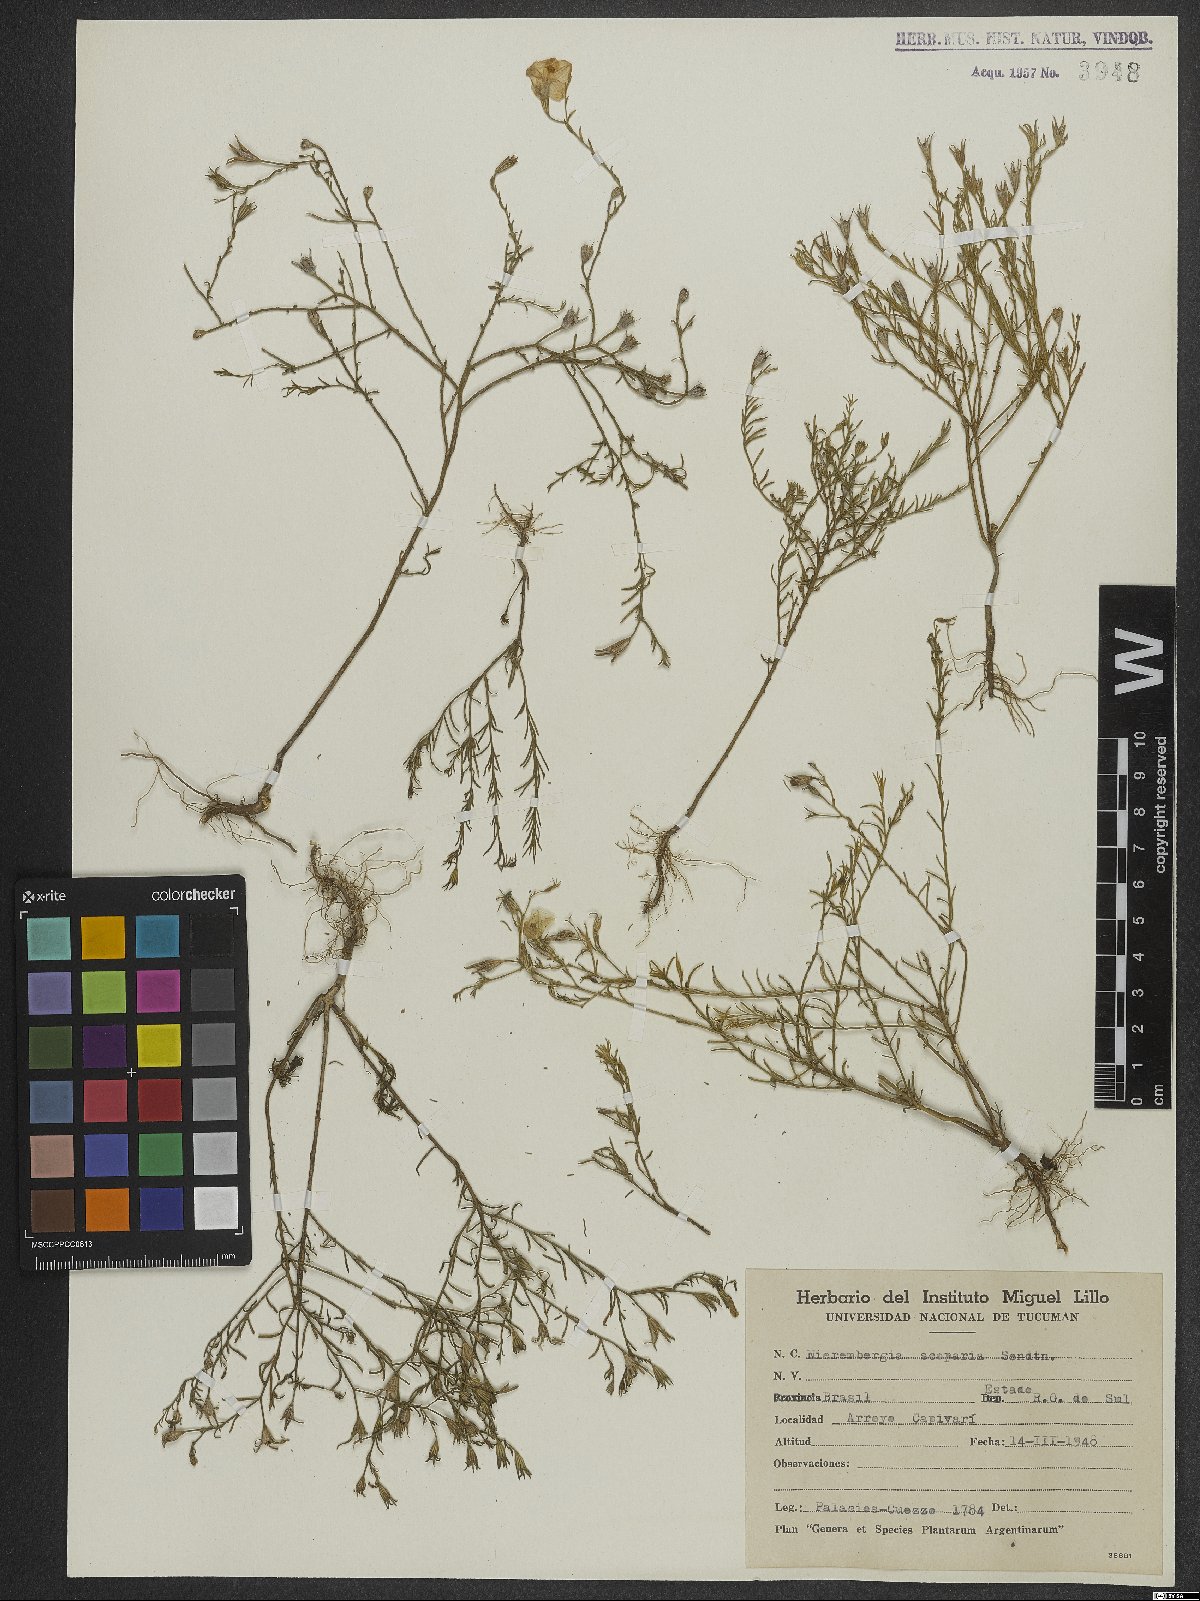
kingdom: Plantae
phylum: Tracheophyta
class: Magnoliopsida
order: Solanales
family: Solanaceae
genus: Nierembergia
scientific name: Nierembergia scoparia
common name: Broom cupflower
